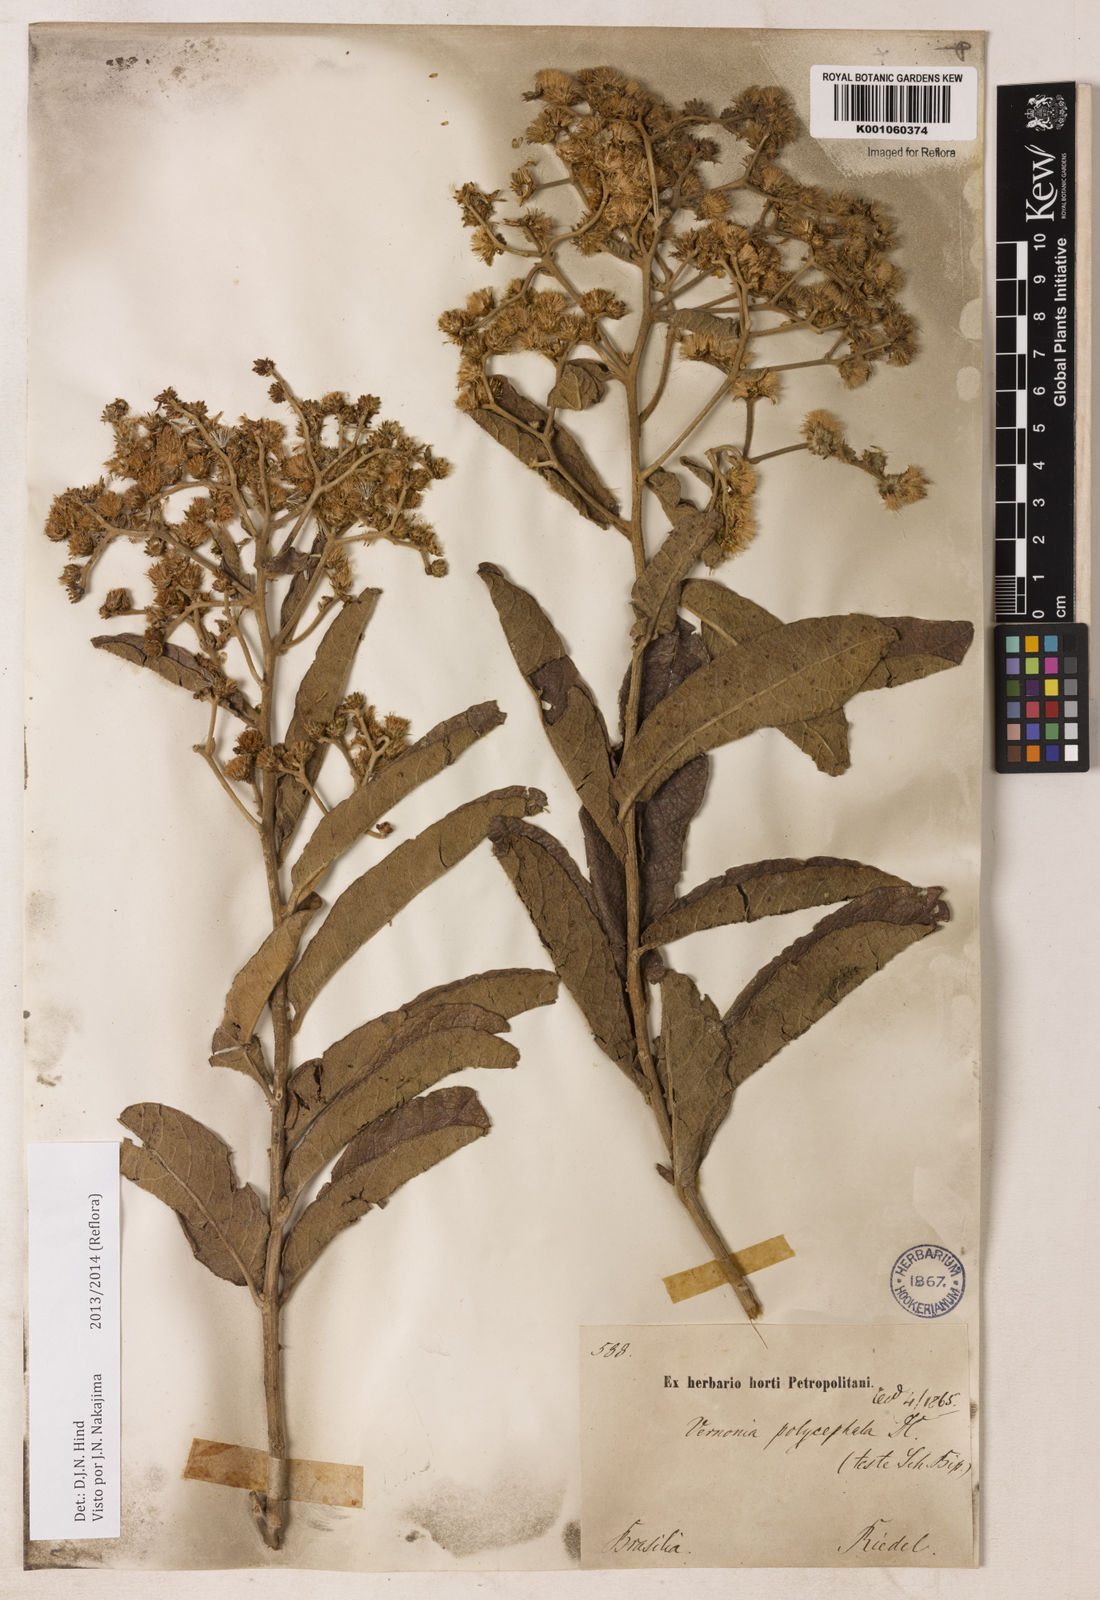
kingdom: Plantae
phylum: Tracheophyta
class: Magnoliopsida
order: Asterales
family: Asteraceae
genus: Vernonanthura
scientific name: Vernonanthura ferruginea
